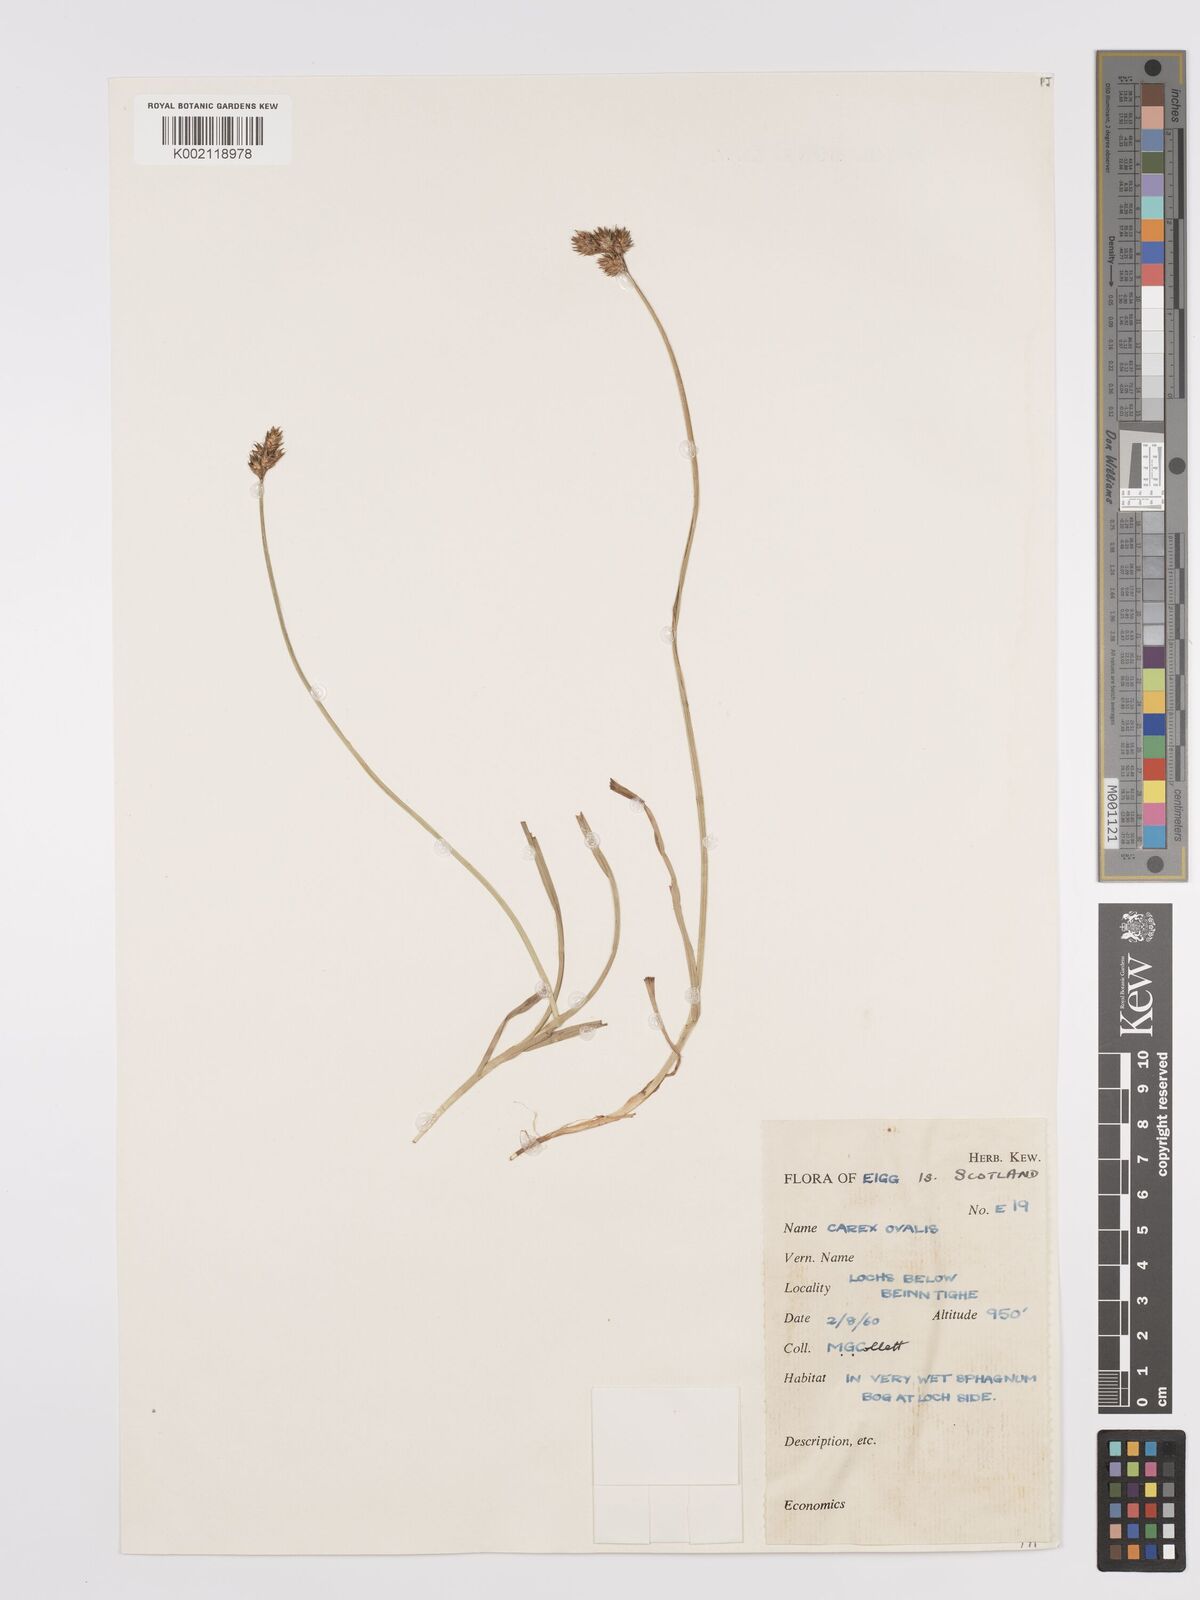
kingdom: Plantae
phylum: Tracheophyta
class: Liliopsida
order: Poales
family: Cyperaceae
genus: Carex
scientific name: Carex leporina
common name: Oval sedge
